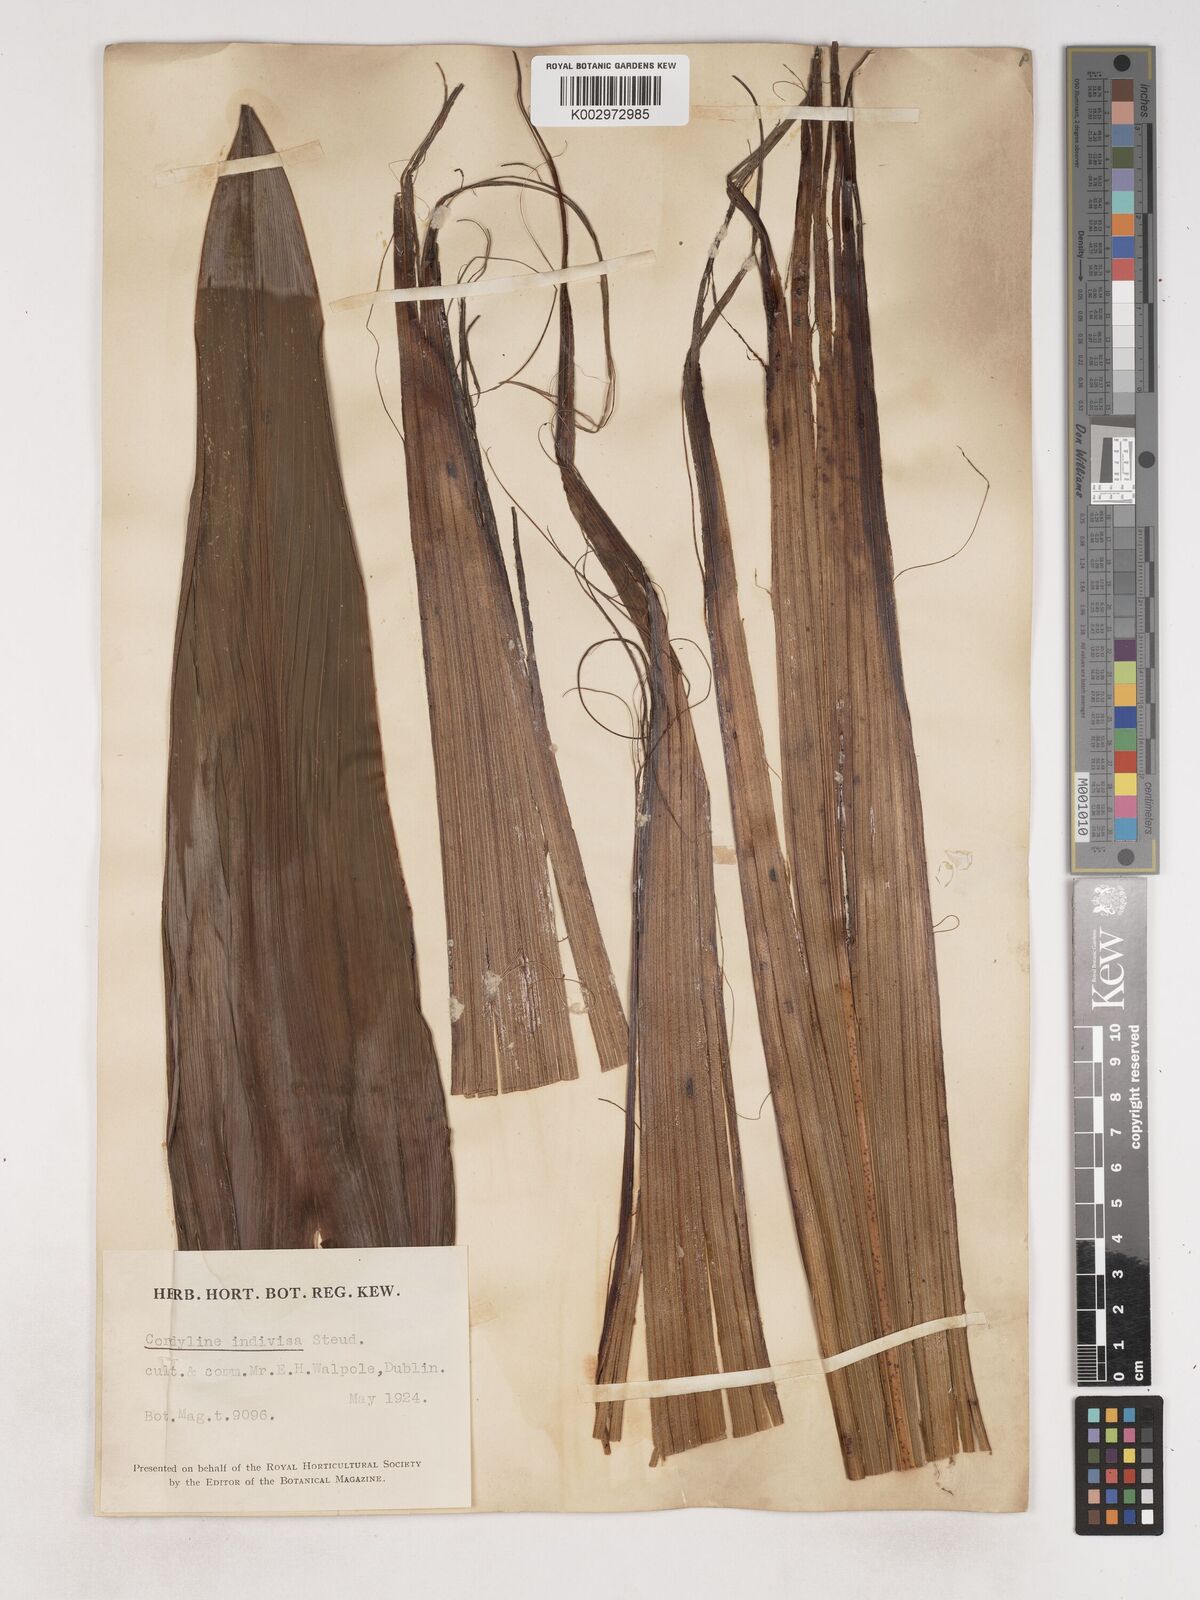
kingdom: Plantae
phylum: Tracheophyta
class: Liliopsida
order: Asparagales
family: Asparagaceae
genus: Cordyline
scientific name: Cordyline
